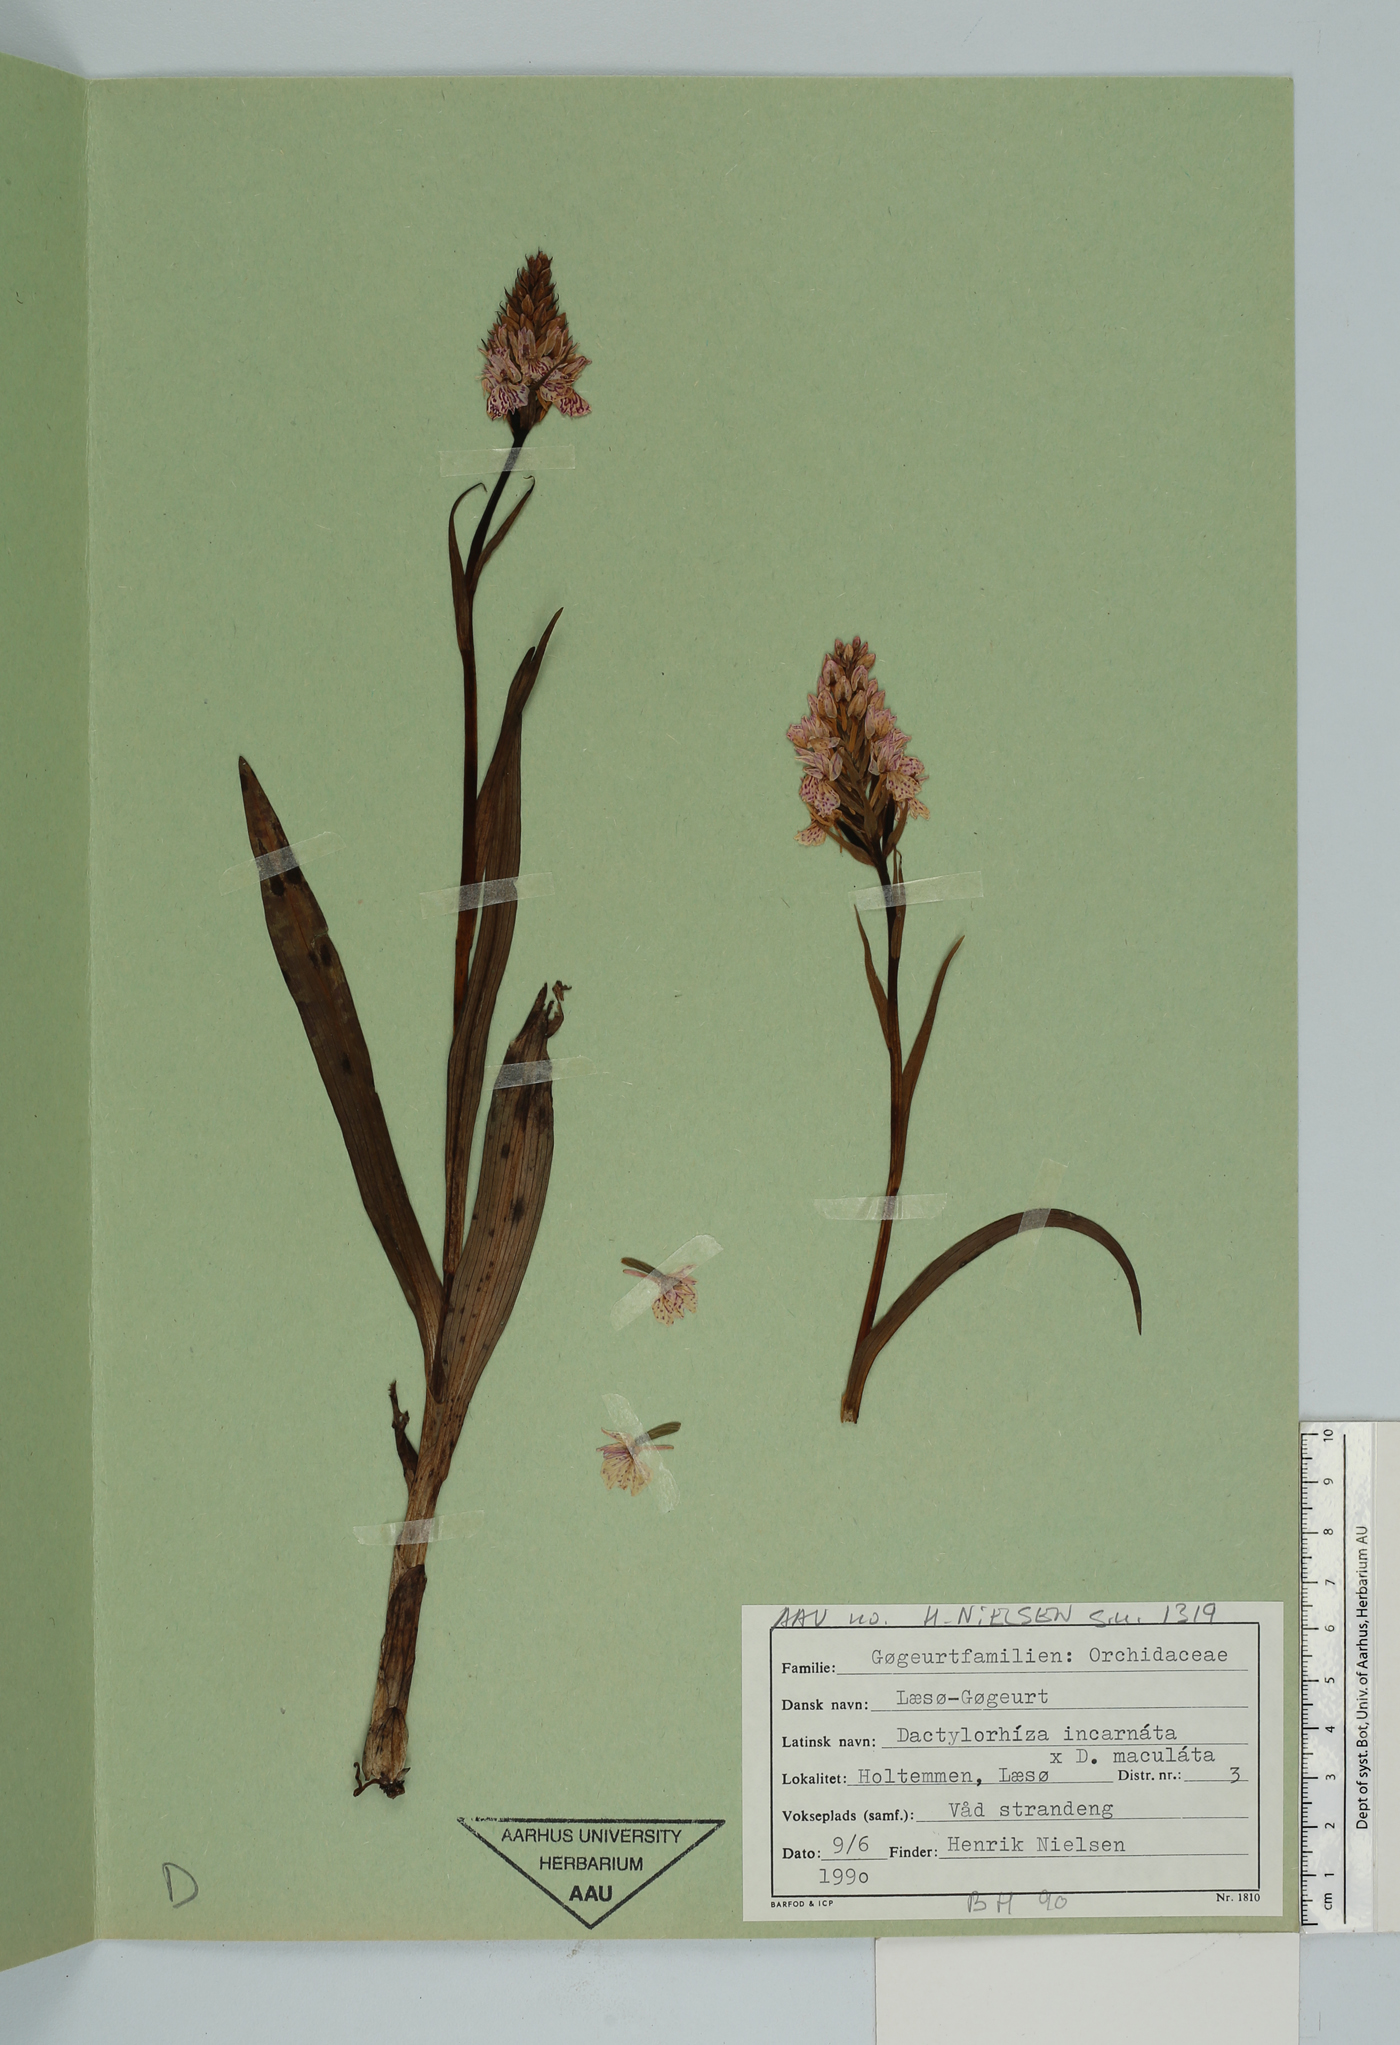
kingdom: Plantae
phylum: Tracheophyta
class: Liliopsida
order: Asparagales
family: Orchidaceae
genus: Dactylorhiza
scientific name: Dactylorhiza incarnata
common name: Early marsh-orchid
